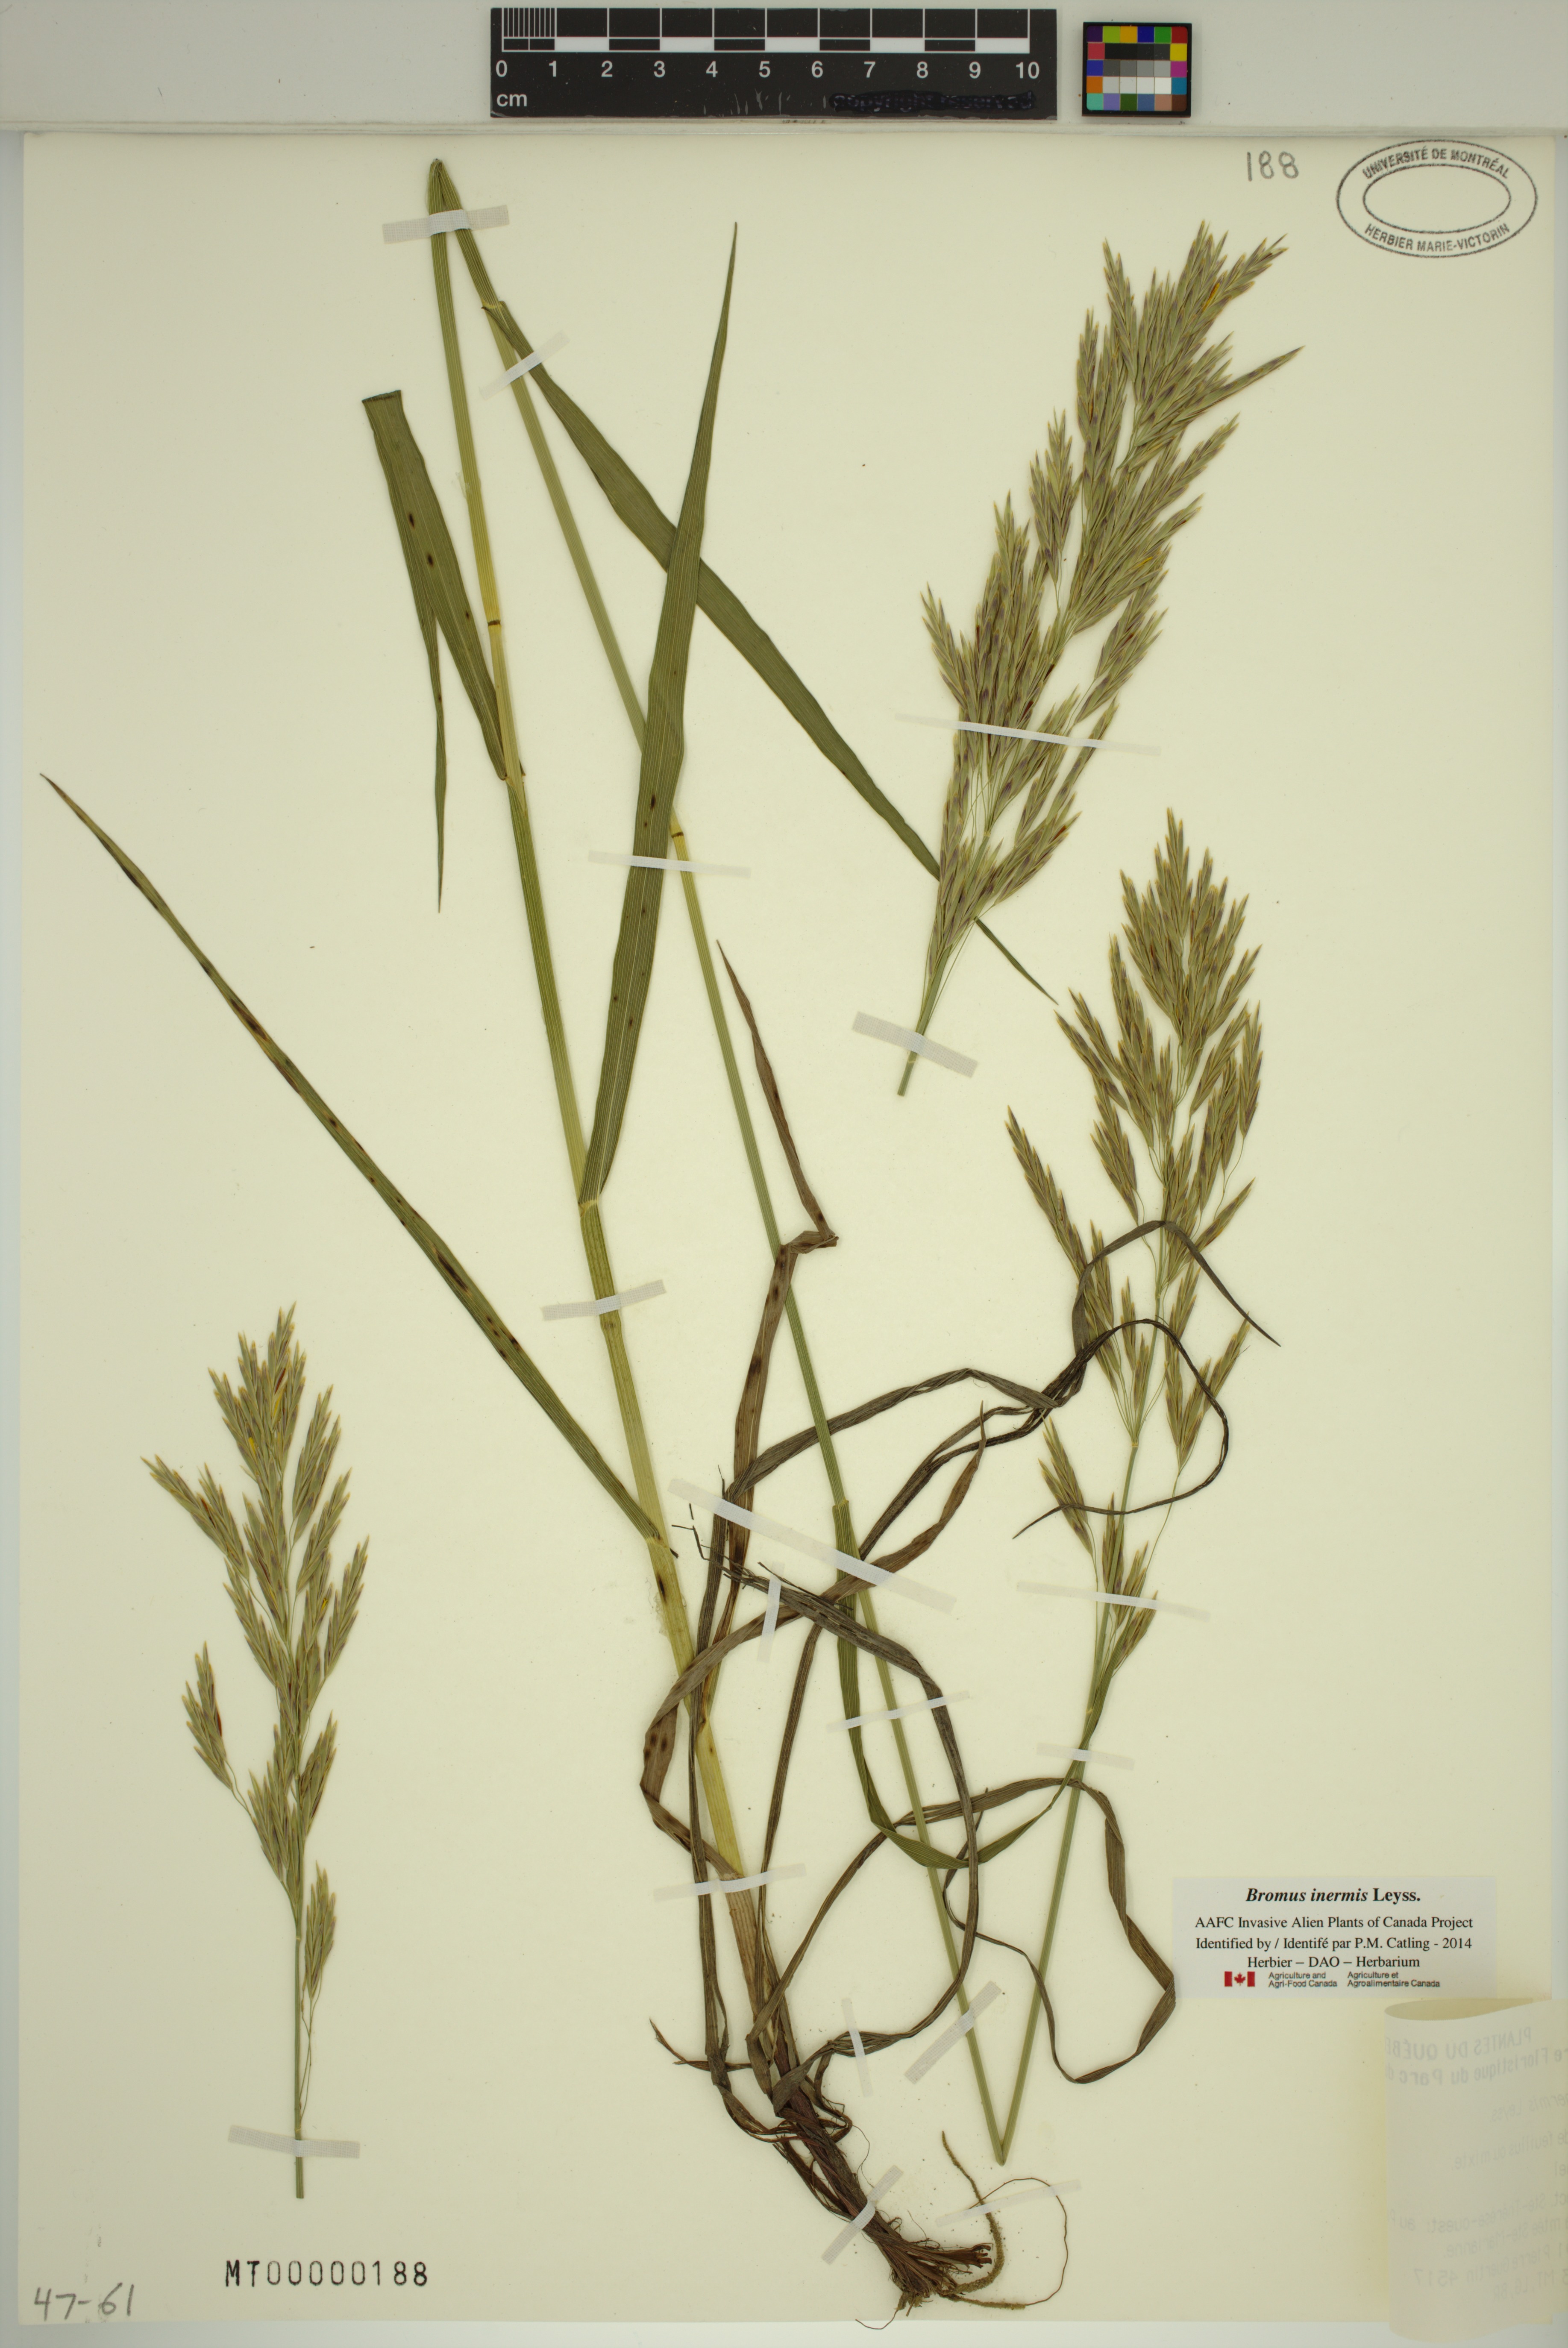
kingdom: Plantae
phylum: Tracheophyta
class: Liliopsida
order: Poales
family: Poaceae
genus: Bromus
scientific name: Bromus inermis
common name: Smooth brome
